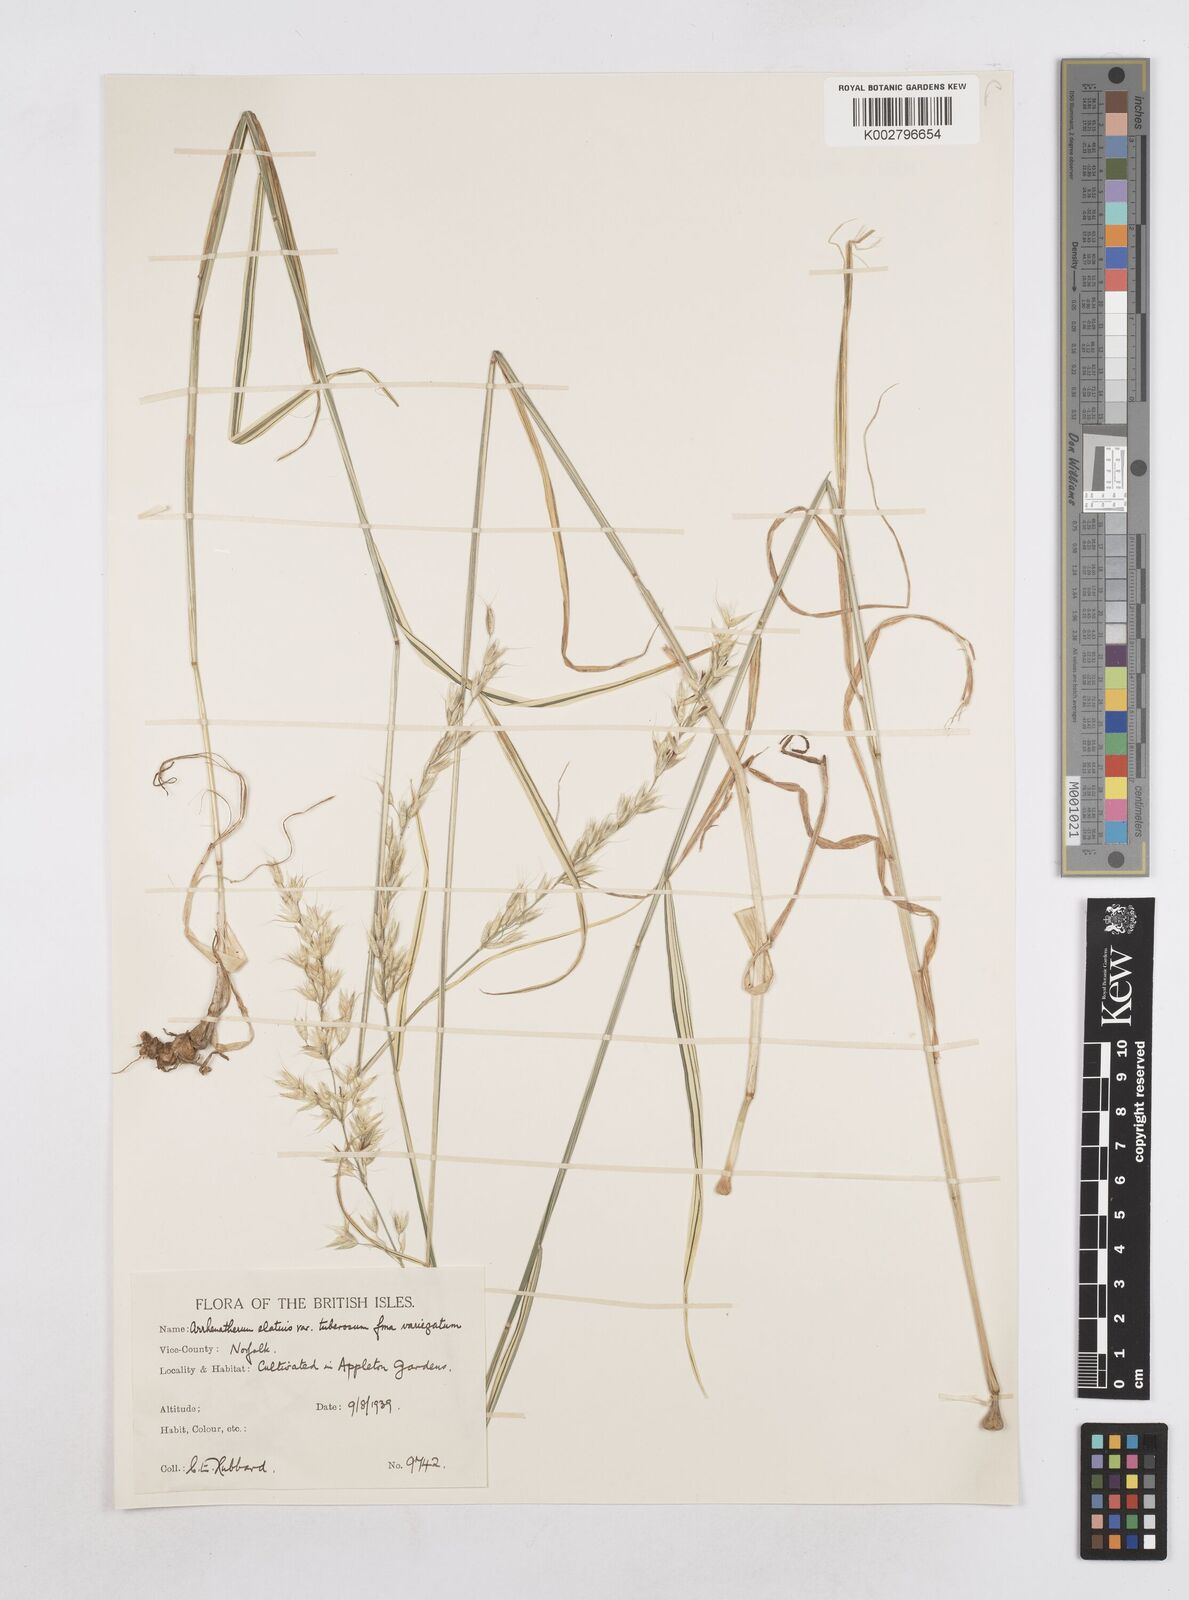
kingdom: Plantae
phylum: Tracheophyta
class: Liliopsida
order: Poales
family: Poaceae
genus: Arrhenatherum
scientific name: Arrhenatherum elatius
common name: Tall oatgrass
